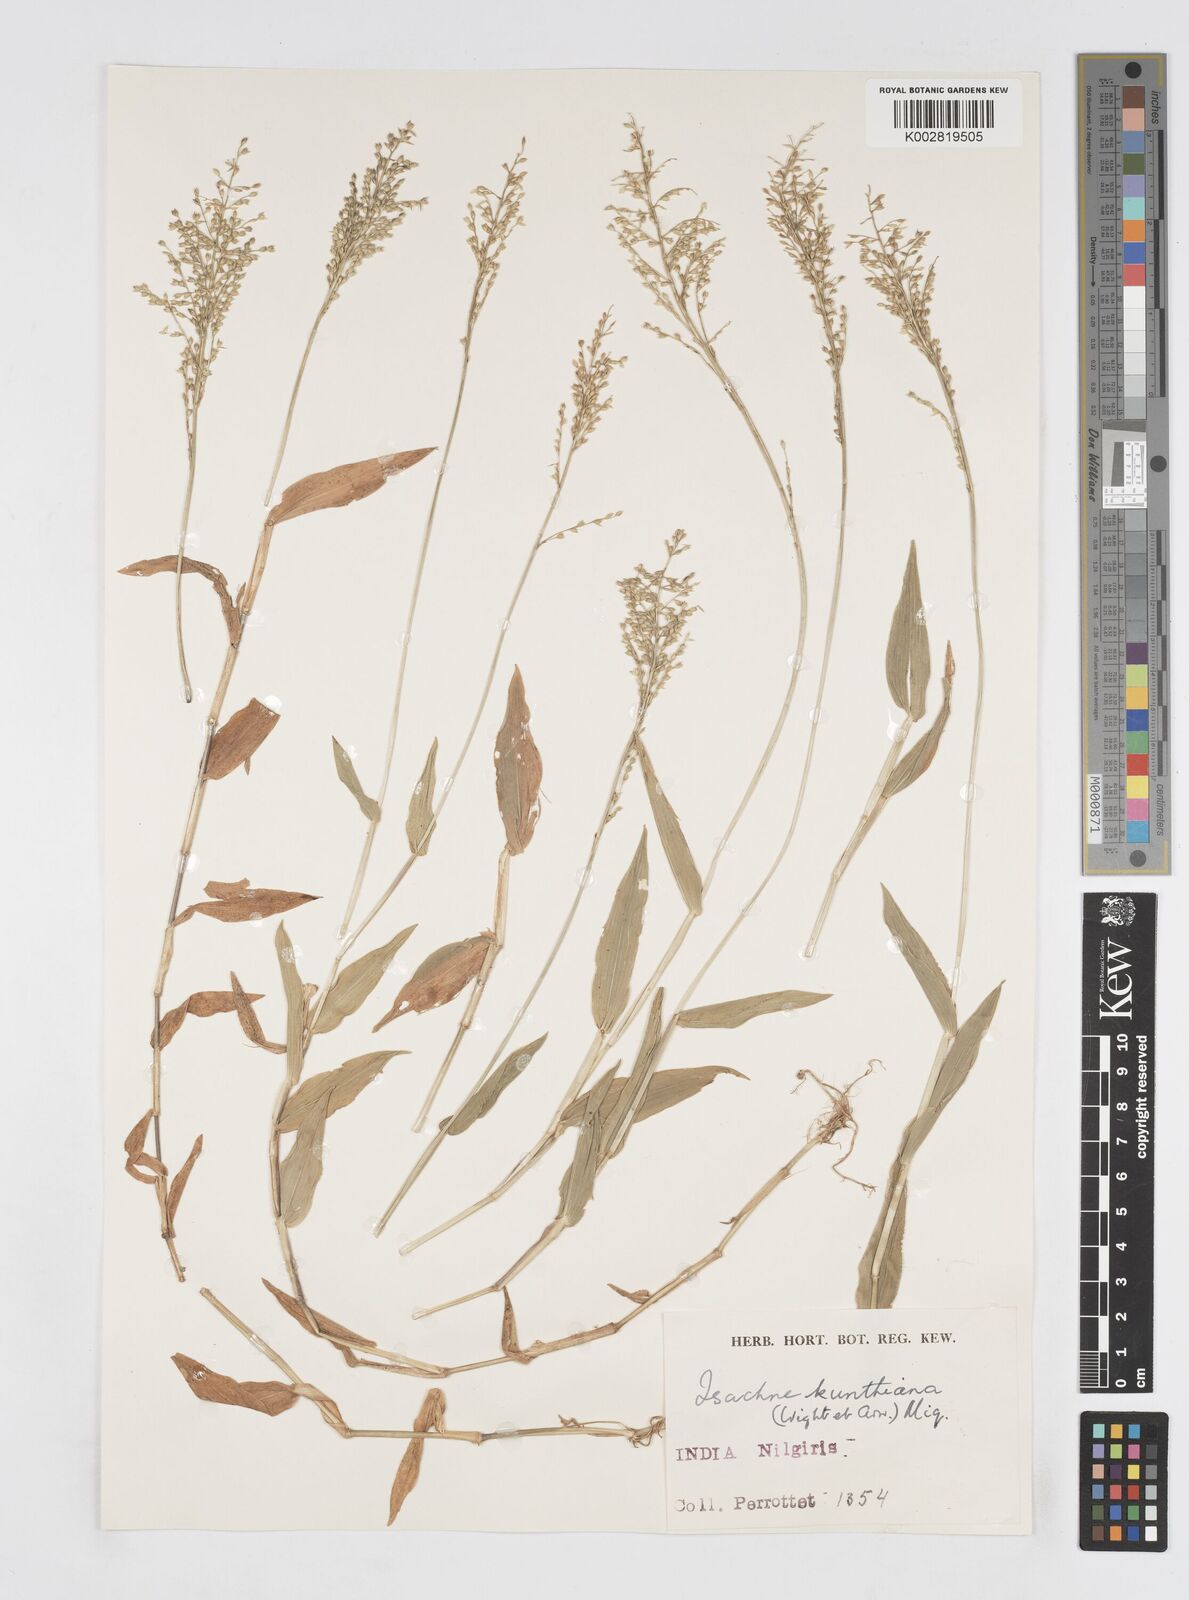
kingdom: Plantae
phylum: Tracheophyta
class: Liliopsida
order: Poales
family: Poaceae
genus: Isachne
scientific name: Isachne kunthiana
